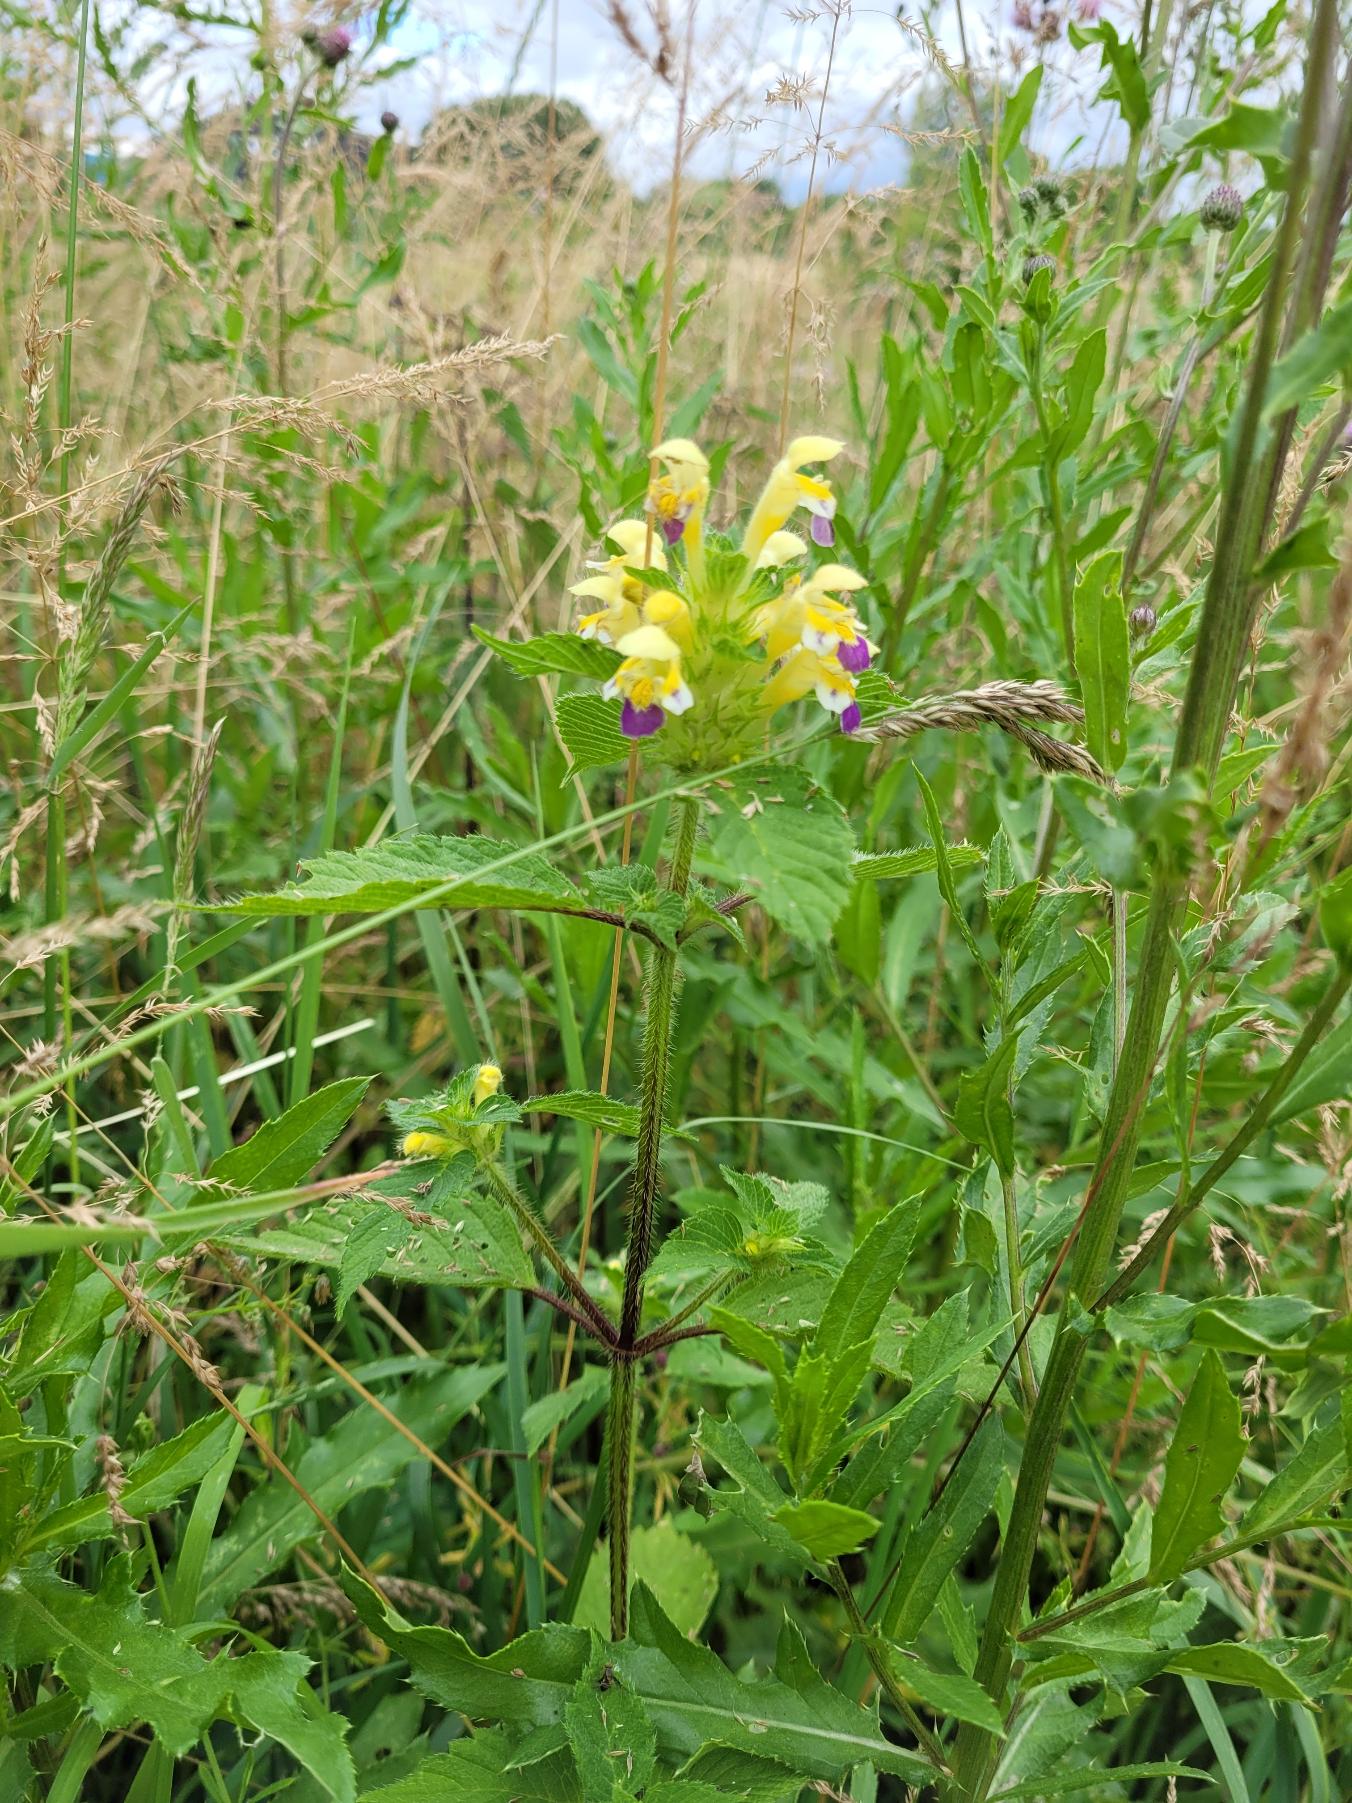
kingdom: Plantae
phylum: Tracheophyta
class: Magnoliopsida
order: Lamiales
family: Lamiaceae
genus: Galeopsis
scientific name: Galeopsis speciosa
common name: Hamp-hanekro
